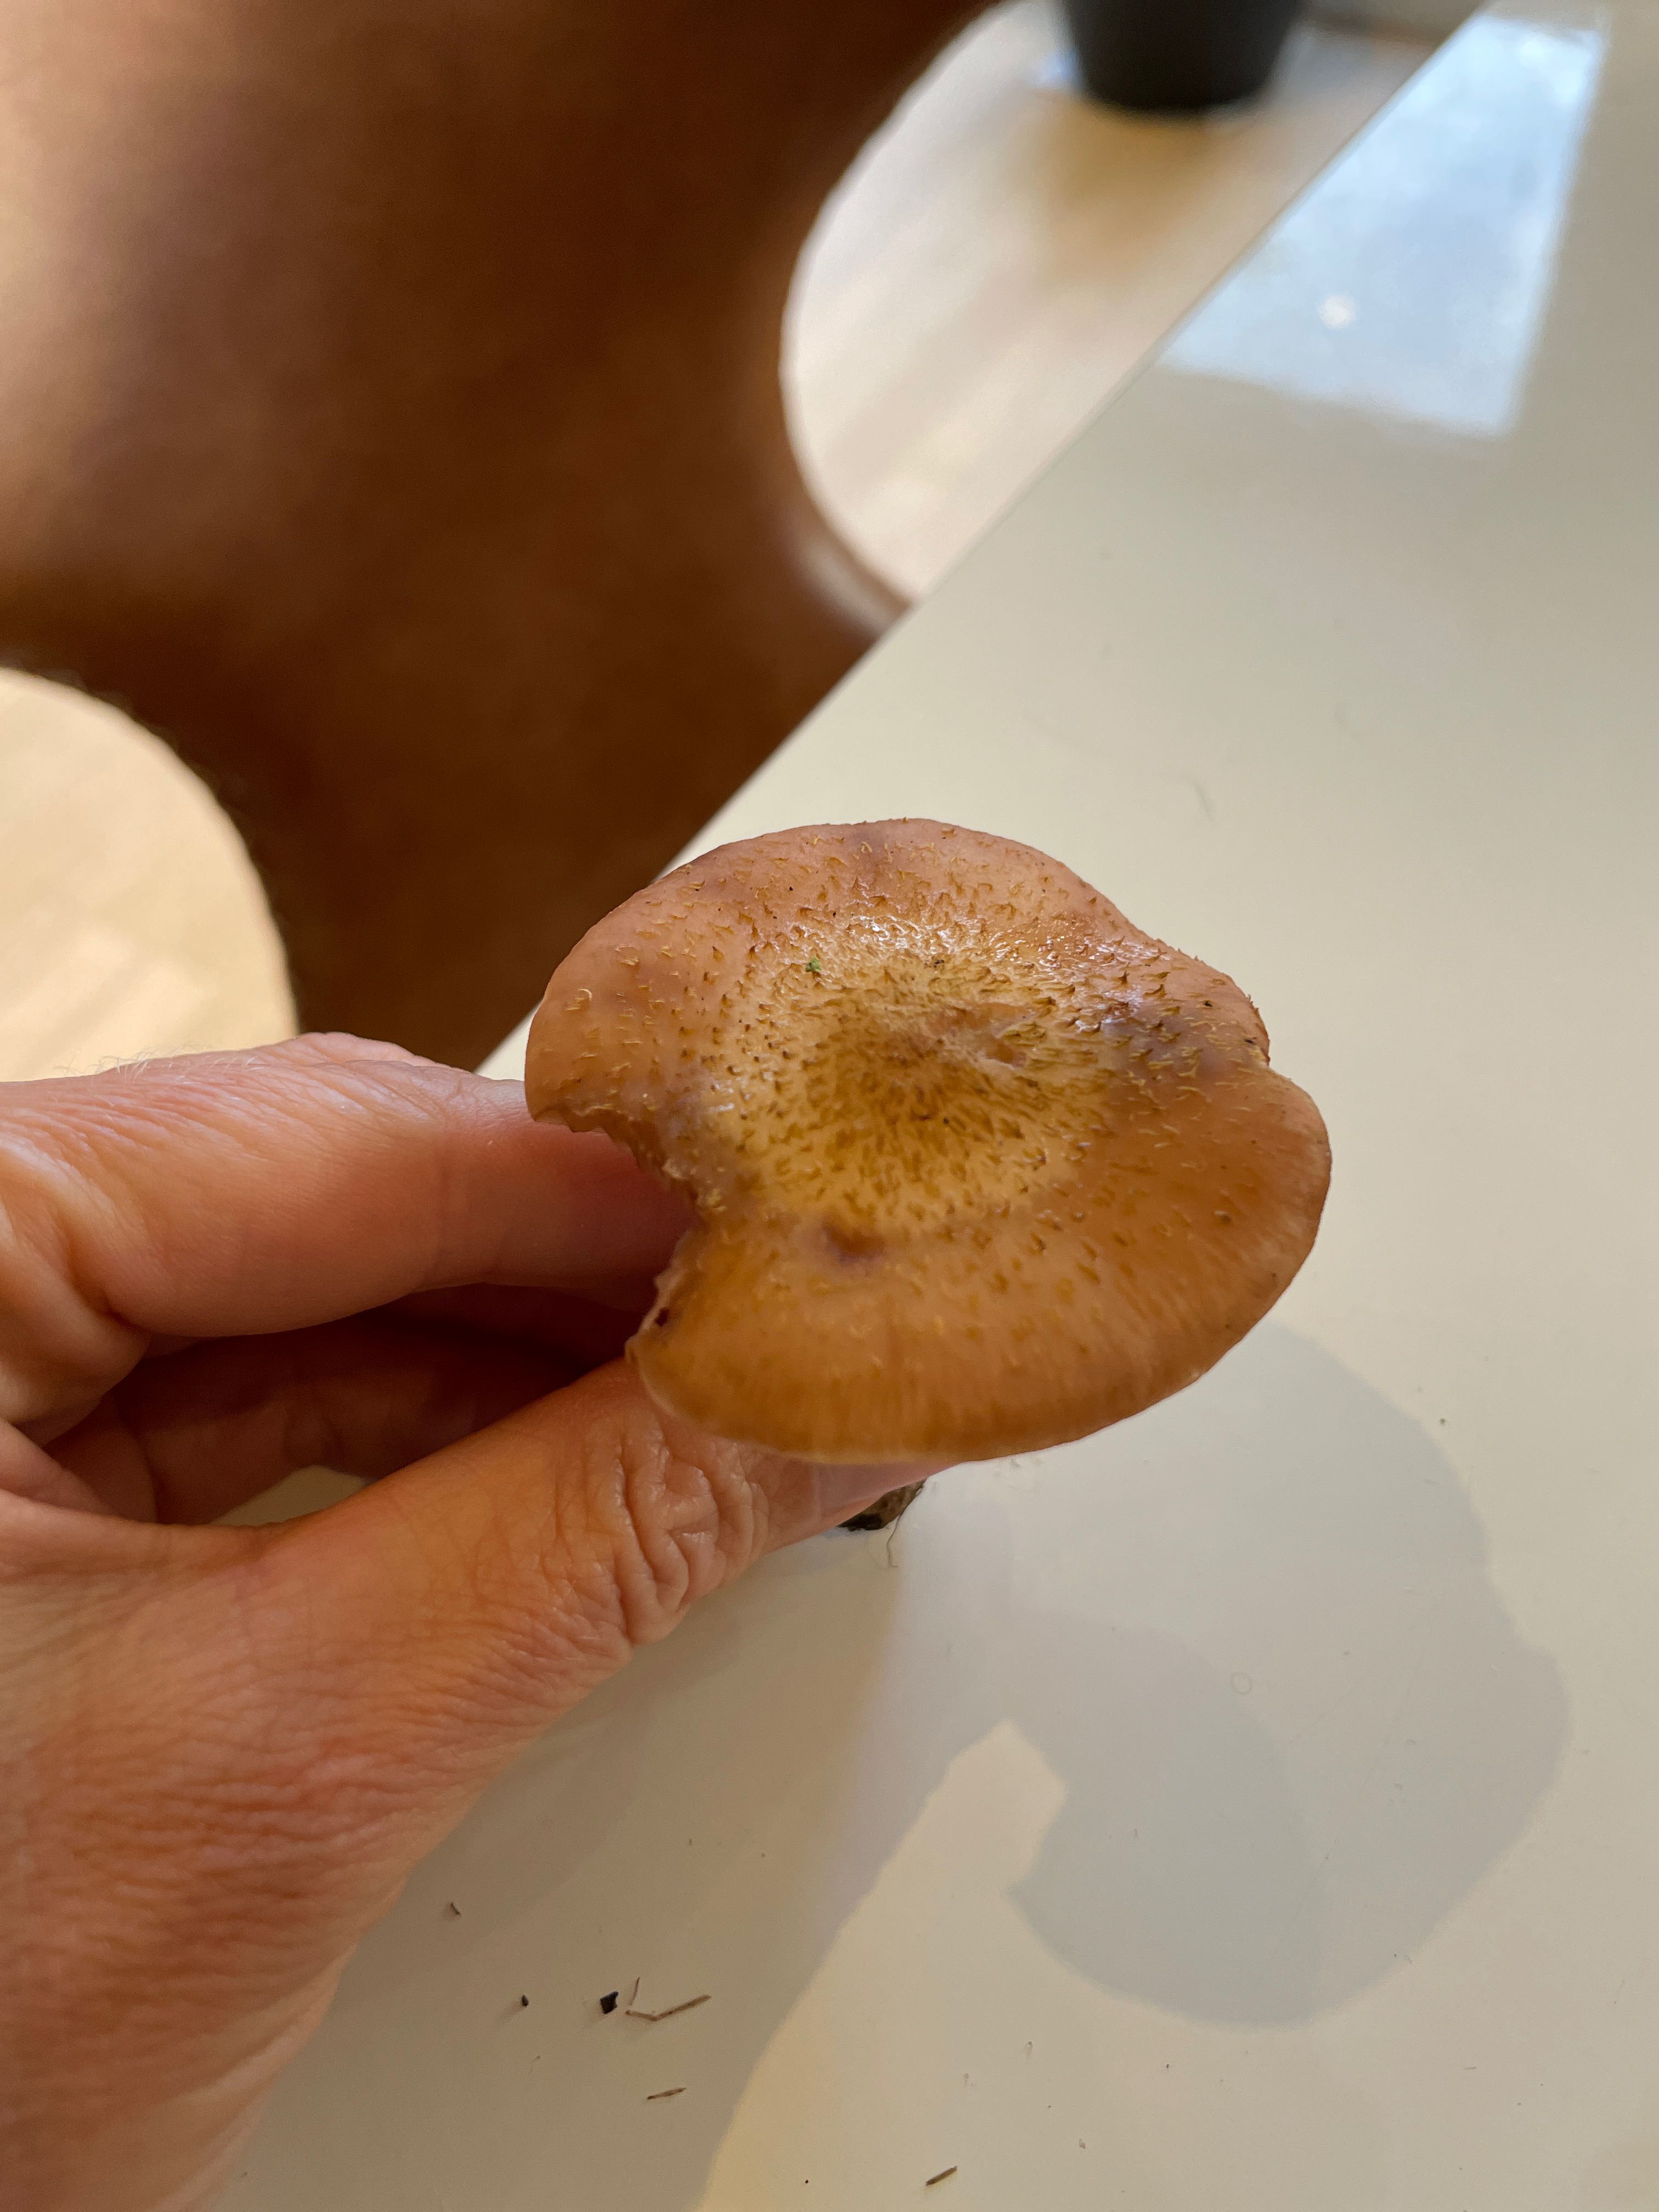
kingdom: Fungi
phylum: Basidiomycota
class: Agaricomycetes
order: Agaricales
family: Physalacriaceae
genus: Armillaria
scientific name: Armillaria lutea
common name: køllestokket honningsvamp
